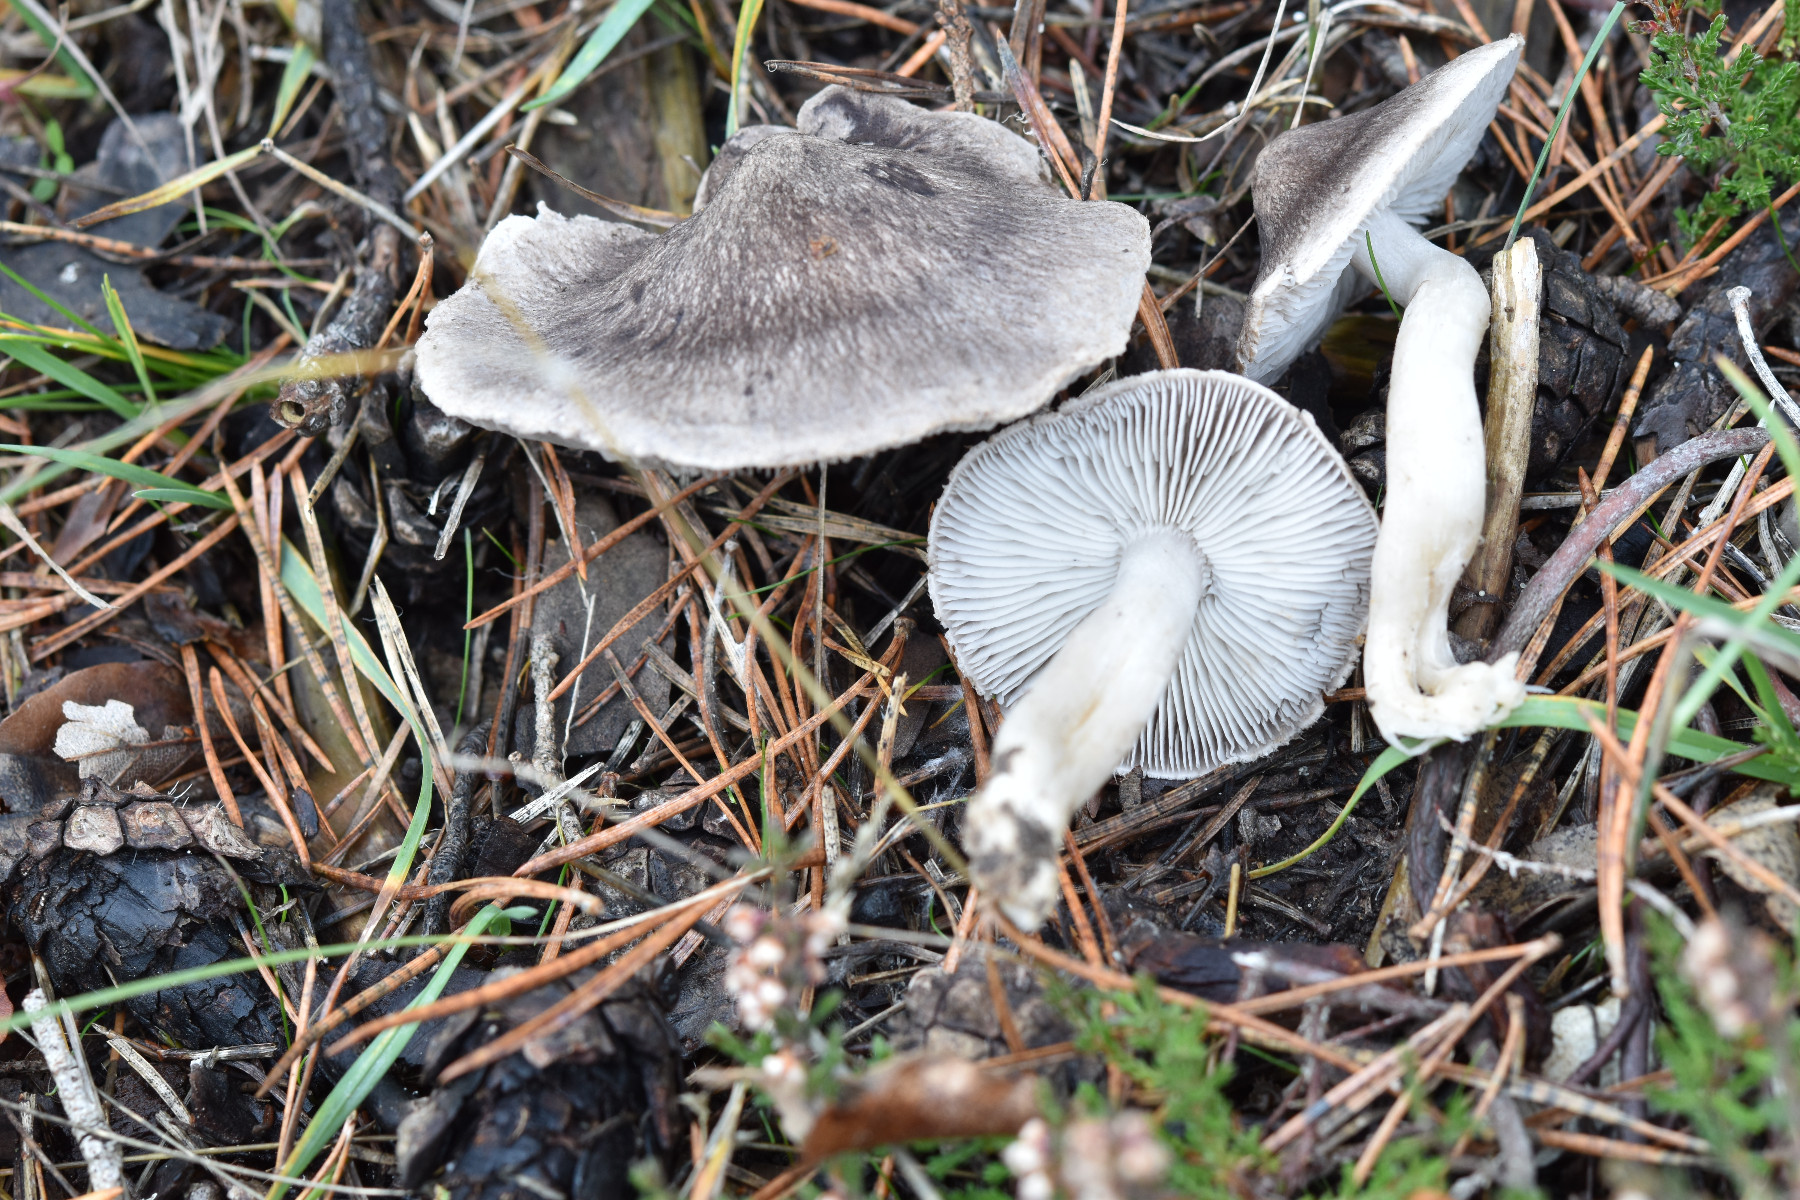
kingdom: Fungi
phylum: Basidiomycota
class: Agaricomycetes
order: Agaricales
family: Tricholomataceae
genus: Tricholoma
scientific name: Tricholoma terreum
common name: jordfarvet ridderhat
